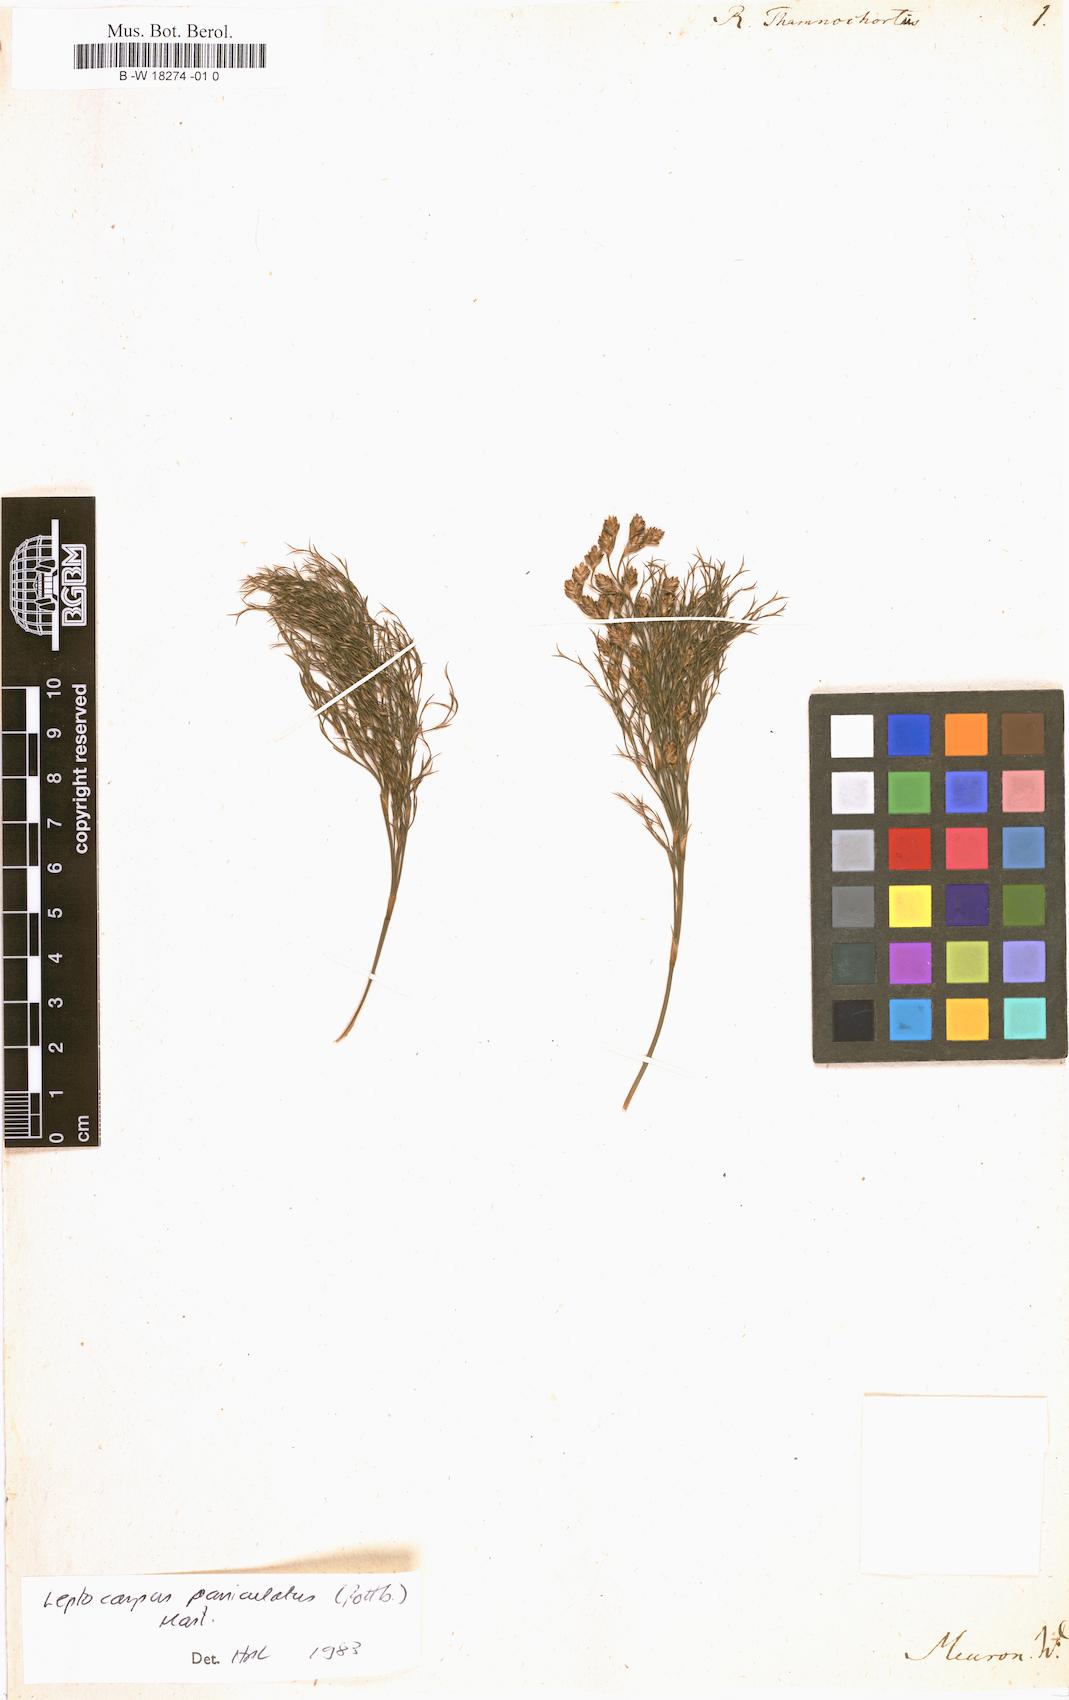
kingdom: Plantae
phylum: Tracheophyta
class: Liliopsida
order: Poales
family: Restionaceae
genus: Thamnochortus
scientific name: Thamnochortus lucens
